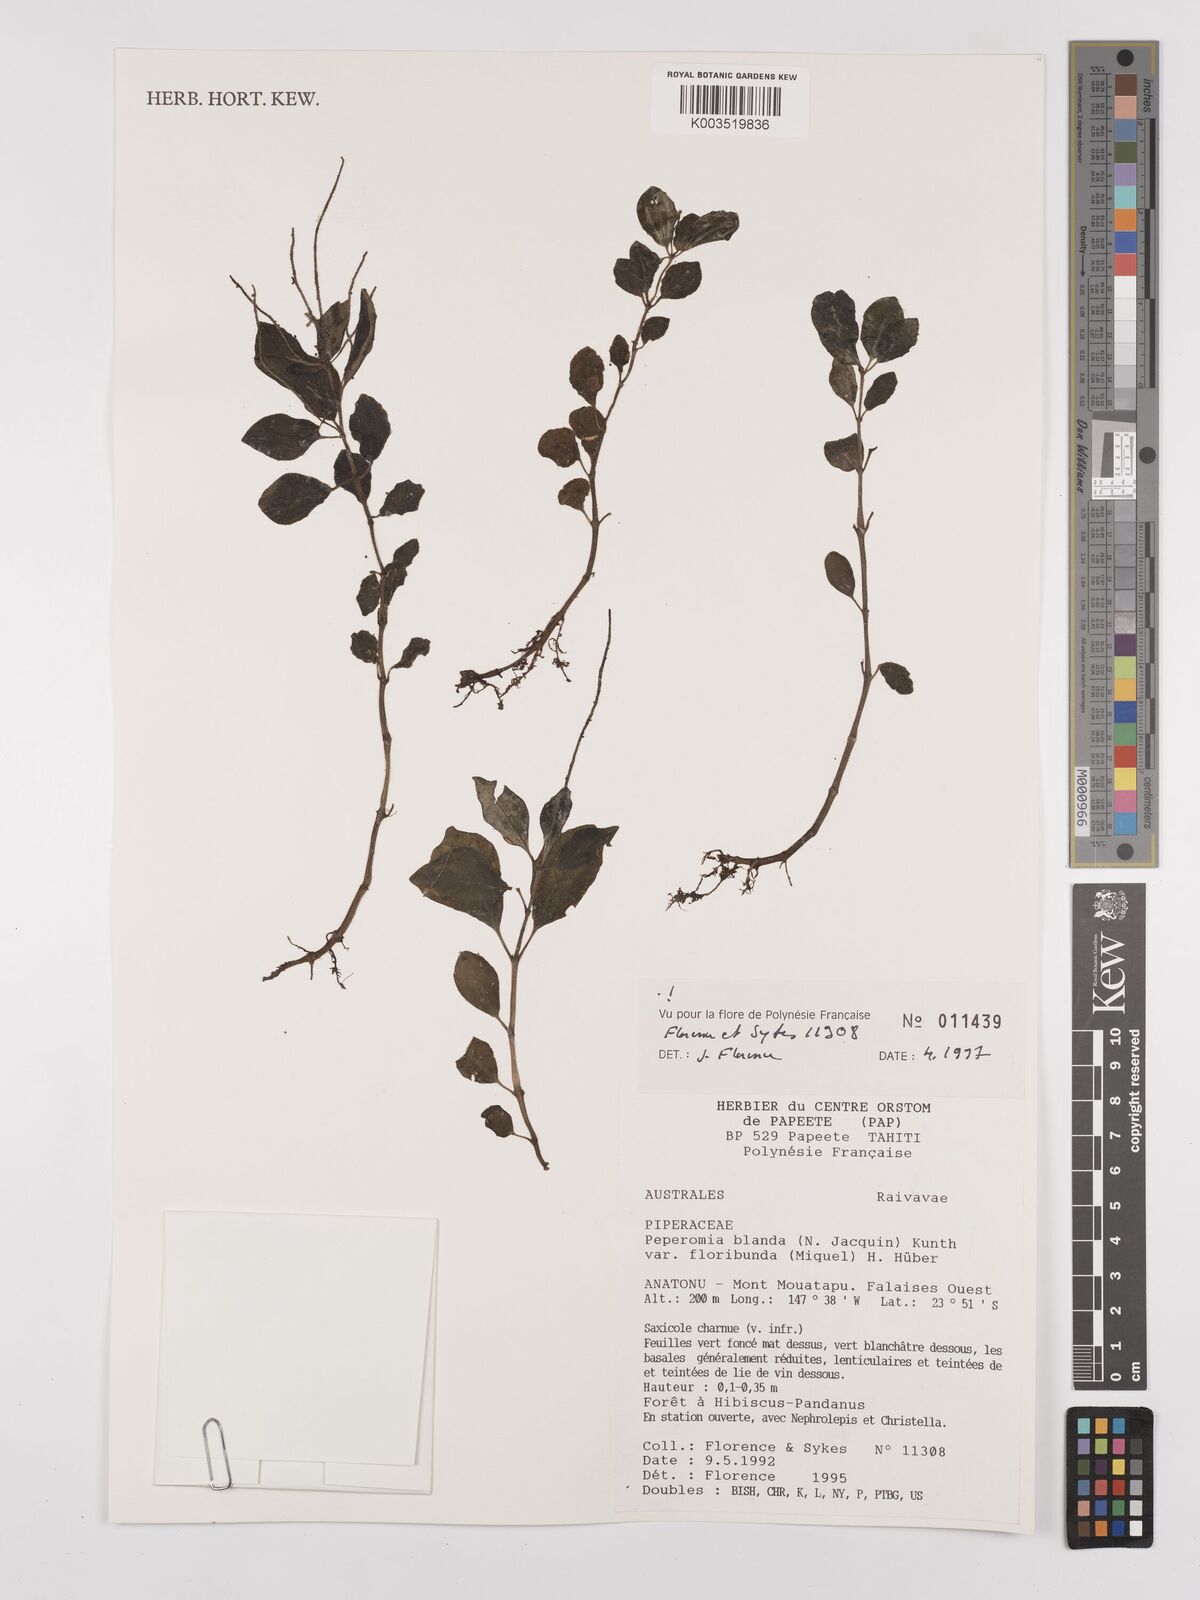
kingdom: Plantae
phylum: Tracheophyta
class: Magnoliopsida
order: Piperales
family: Piperaceae
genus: Peperomia
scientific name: Peperomia leptostachya
